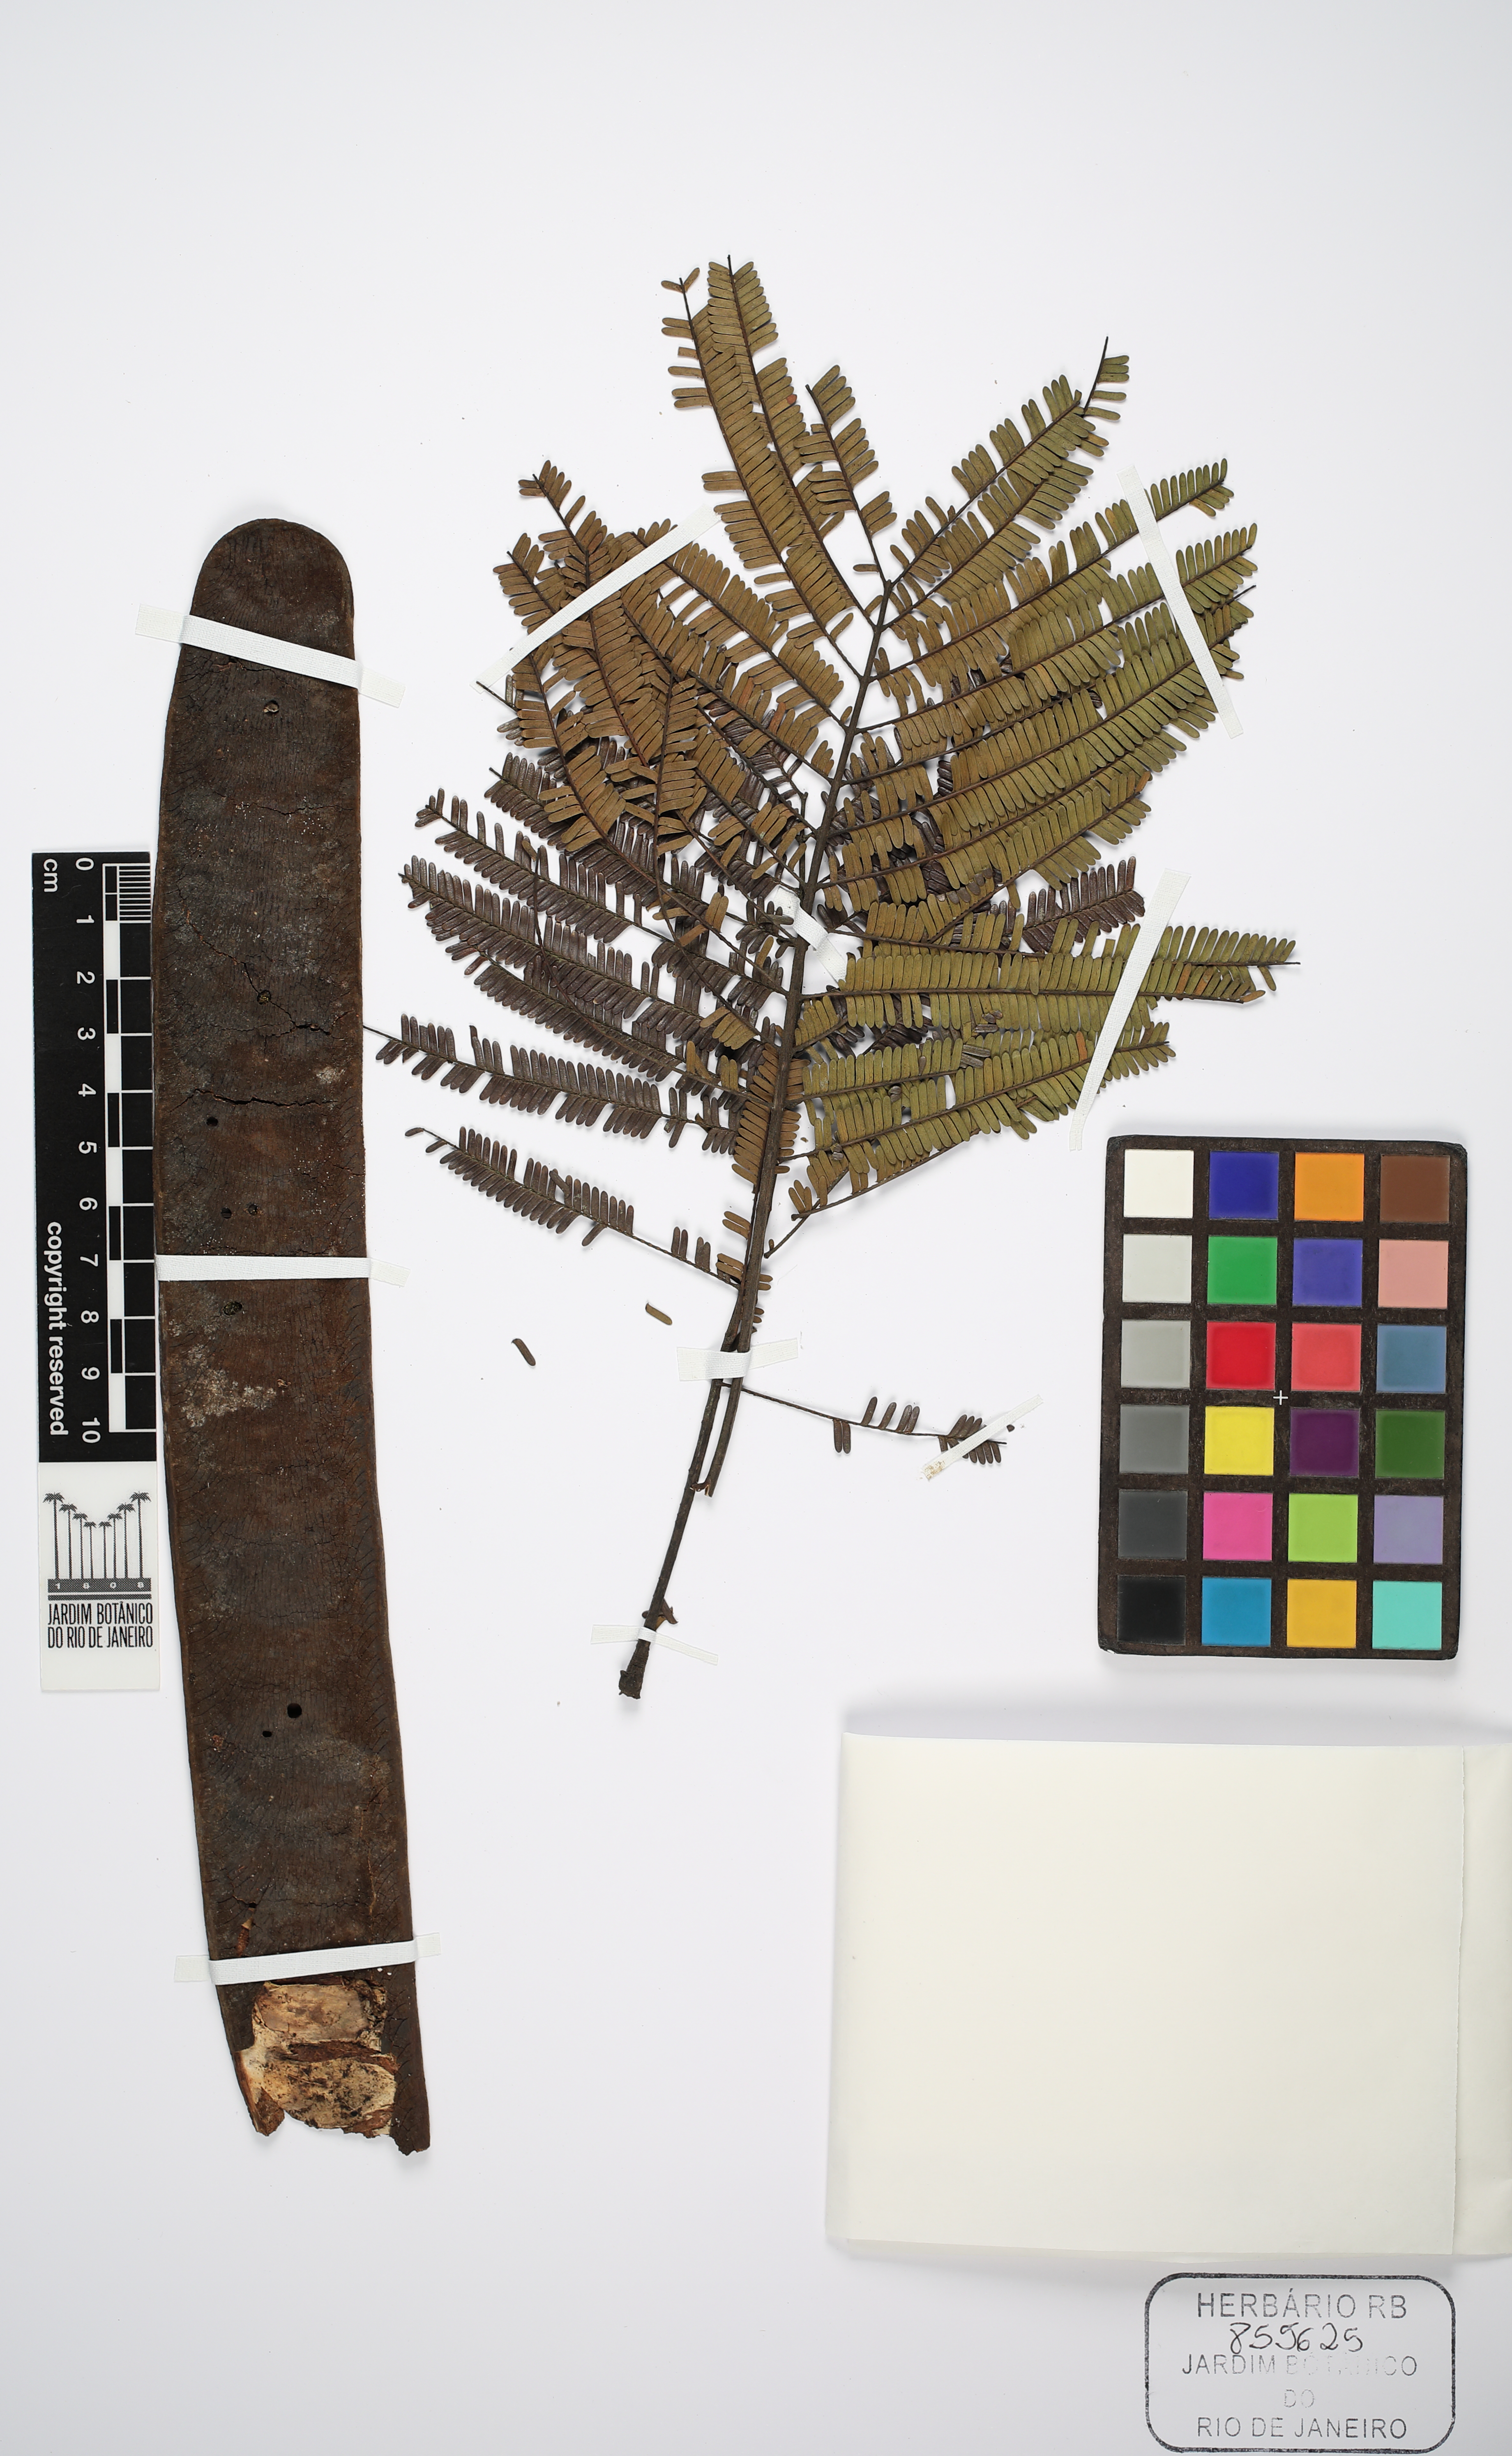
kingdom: Plantae
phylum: Tracheophyta
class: Magnoliopsida
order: Fabales
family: Fabaceae
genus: Parkia
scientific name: Parkia ulei
